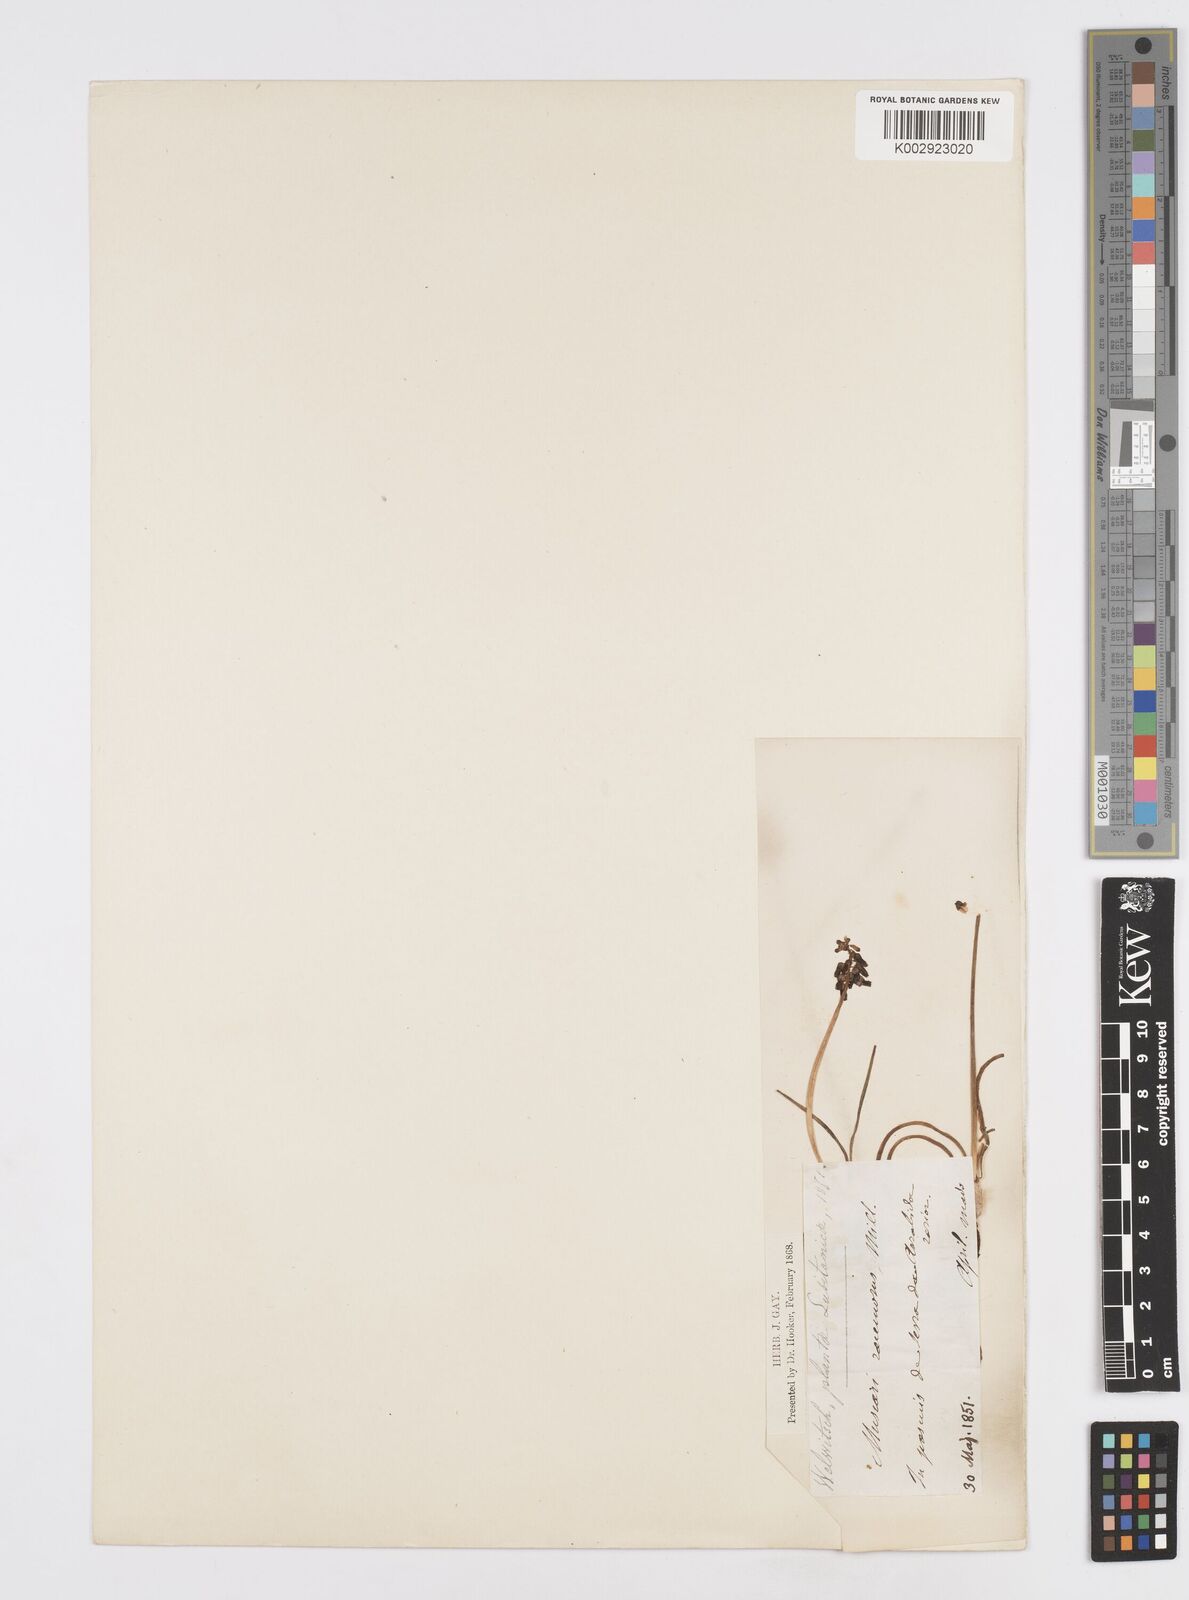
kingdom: Plantae
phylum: Tracheophyta
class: Liliopsida
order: Asparagales
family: Asparagaceae
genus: Muscarimia
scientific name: Muscarimia muscari
